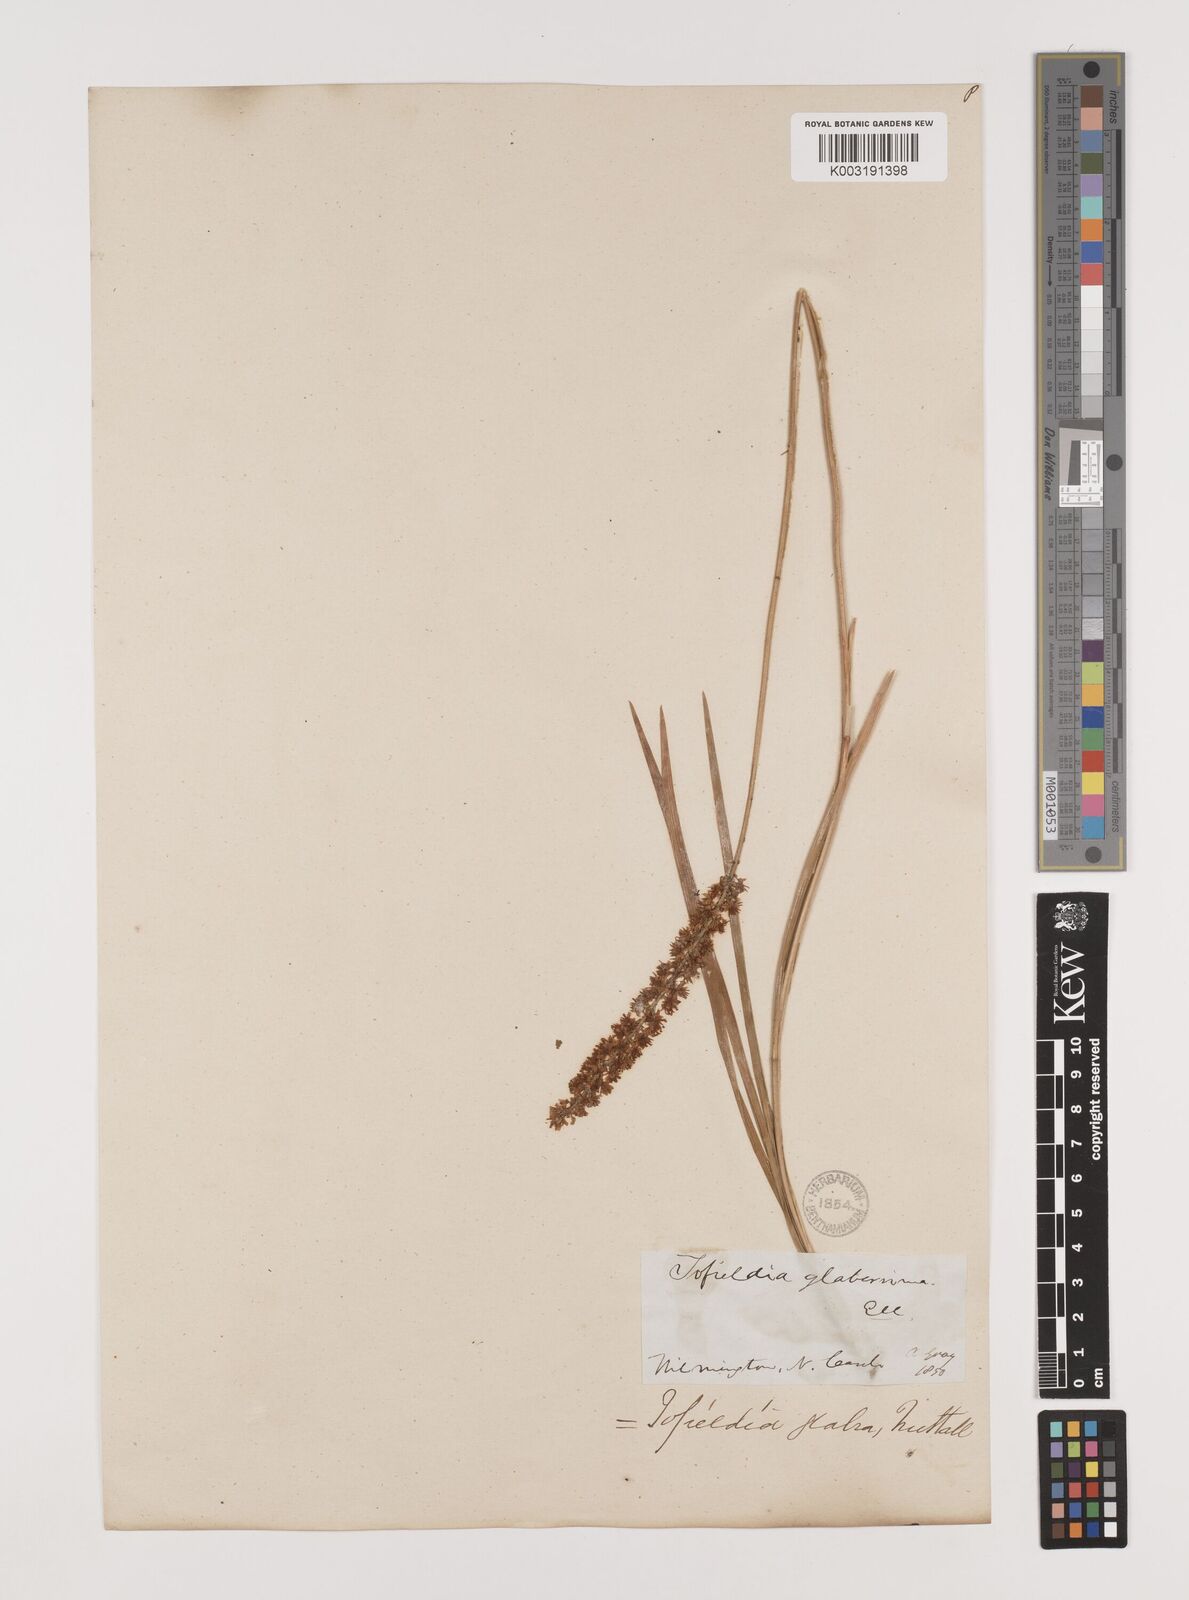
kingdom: Plantae
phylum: Tracheophyta
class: Liliopsida
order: Alismatales
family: Tofieldiaceae
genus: Tofieldia
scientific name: Tofieldia glabra
